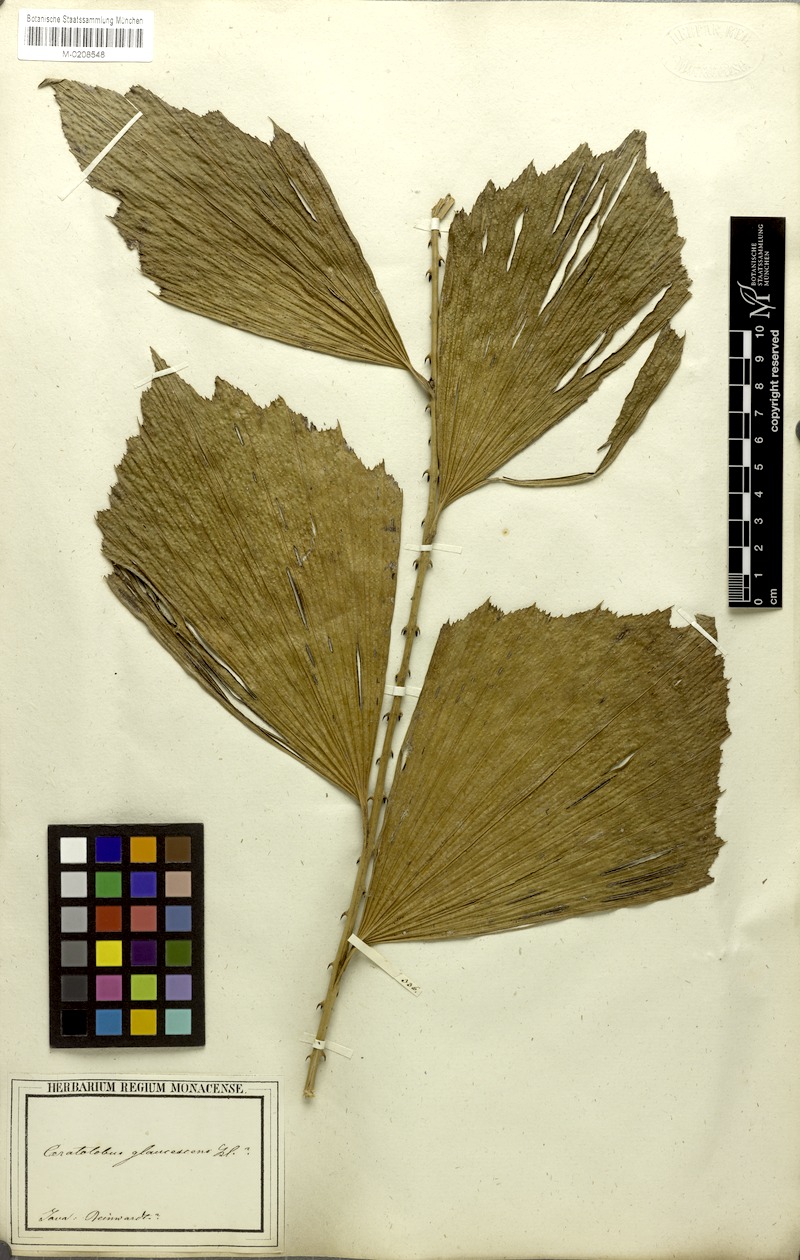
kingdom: Plantae
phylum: Tracheophyta
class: Liliopsida
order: Arecales
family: Arecaceae
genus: Calamus
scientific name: Calamus glaucescens
